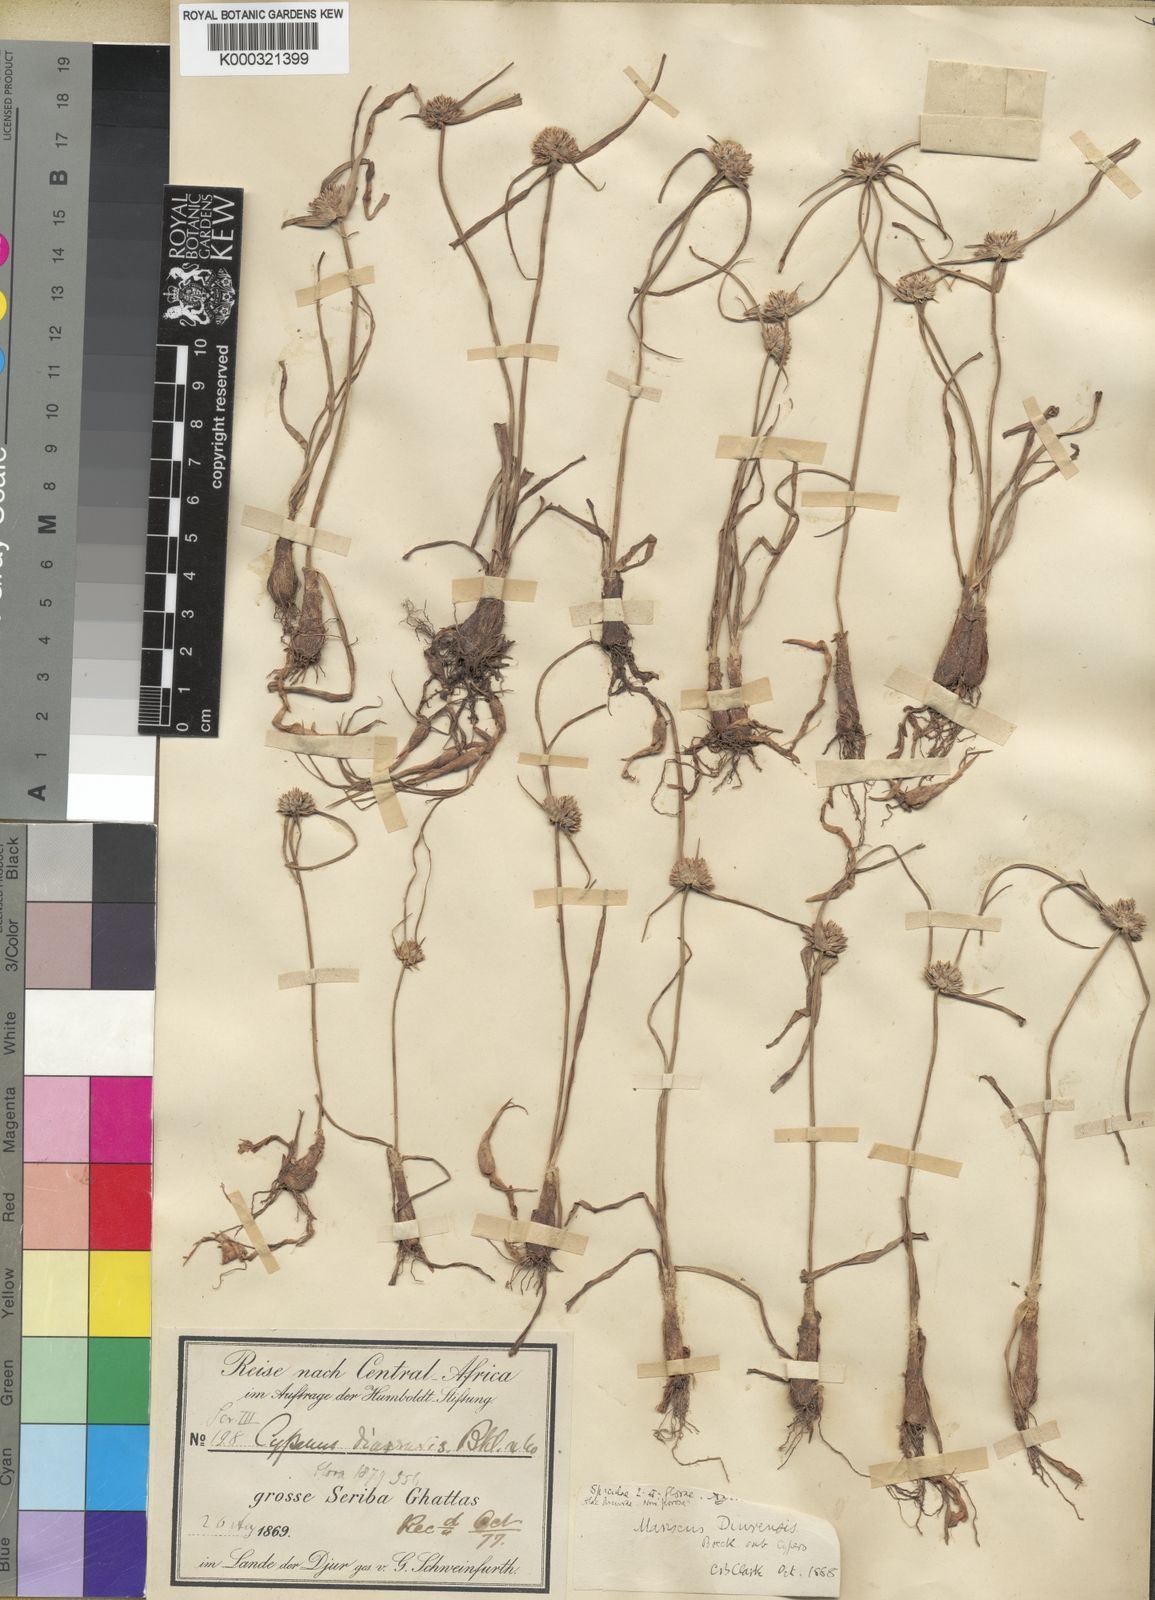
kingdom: Plantae
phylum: Tracheophyta
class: Liliopsida
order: Poales
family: Cyperaceae
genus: Cyperus
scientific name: Cyperus diurensis
